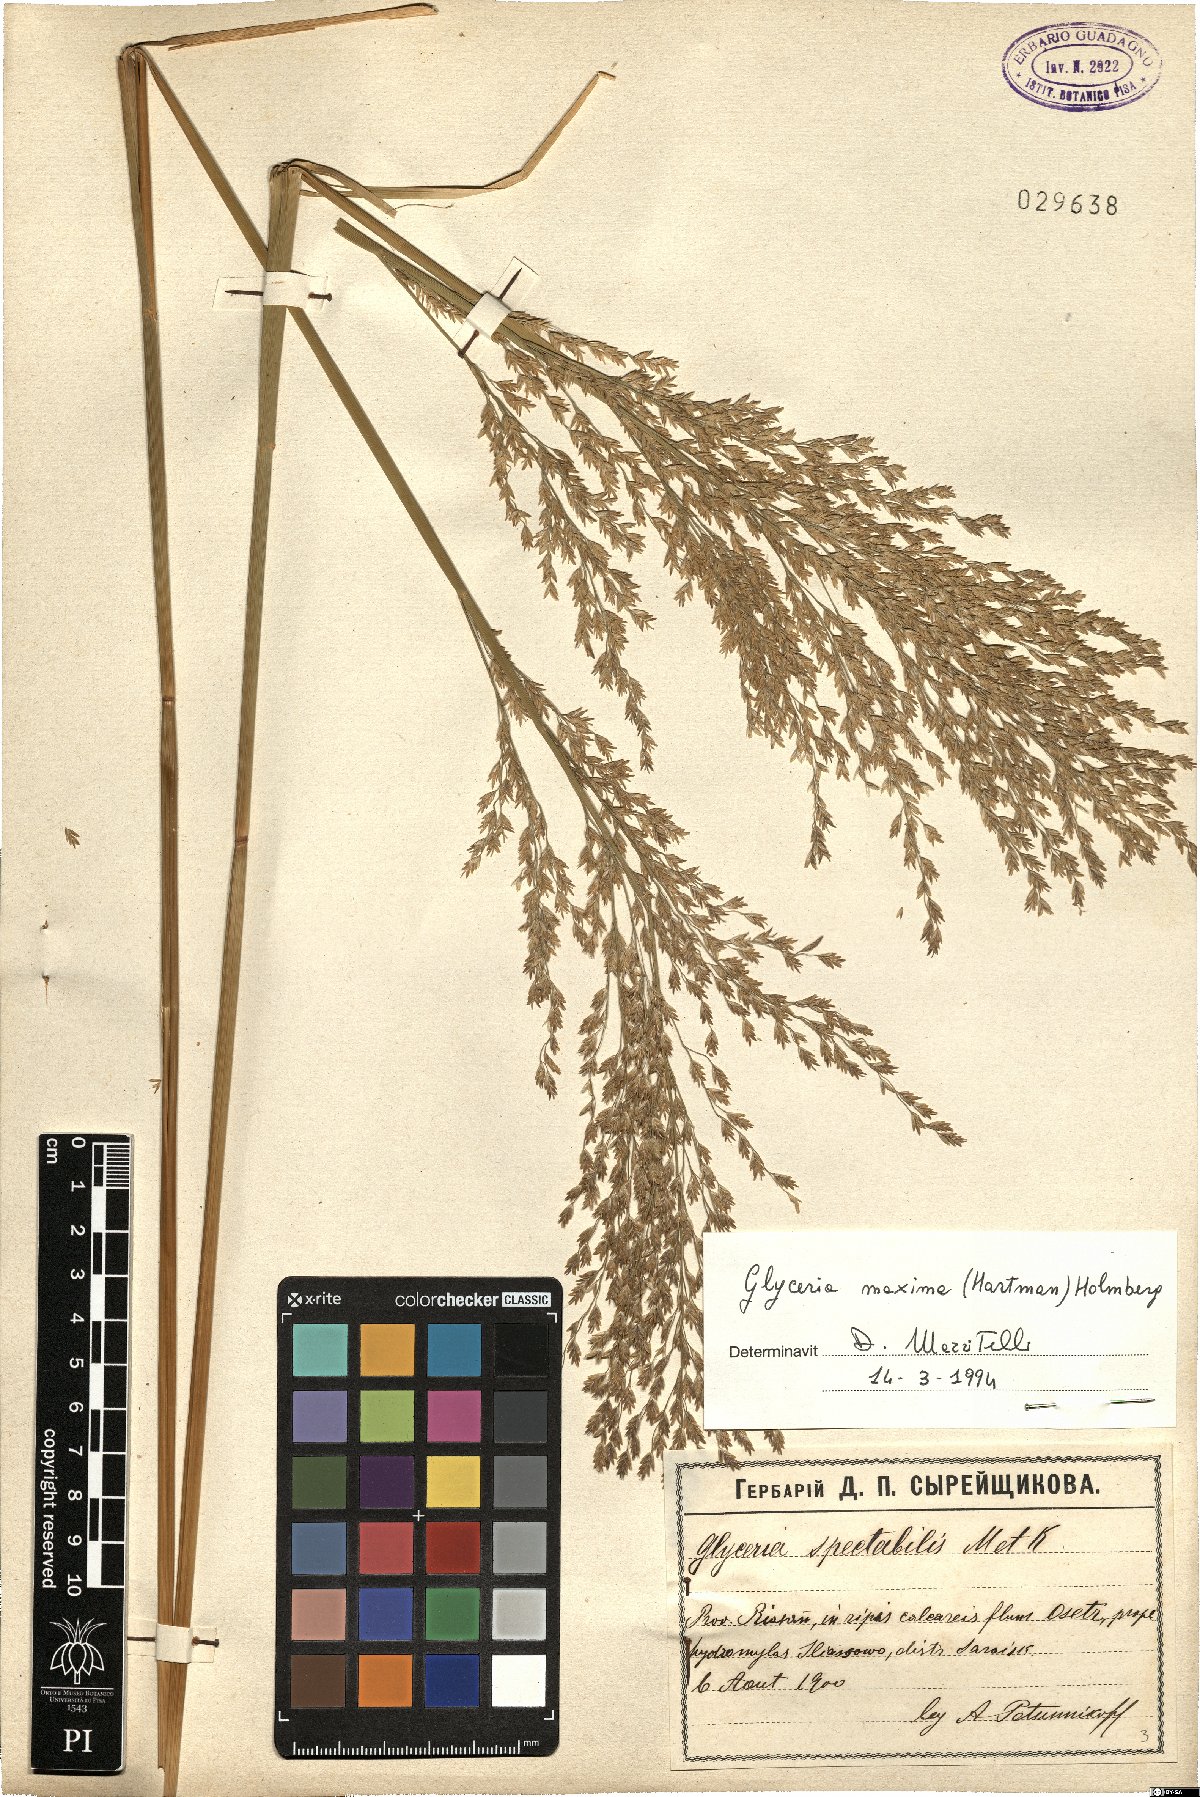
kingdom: Plantae
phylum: Tracheophyta
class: Liliopsida
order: Poales
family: Poaceae
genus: Glyceria
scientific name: Glyceria maxima
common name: Reed mannagrass
